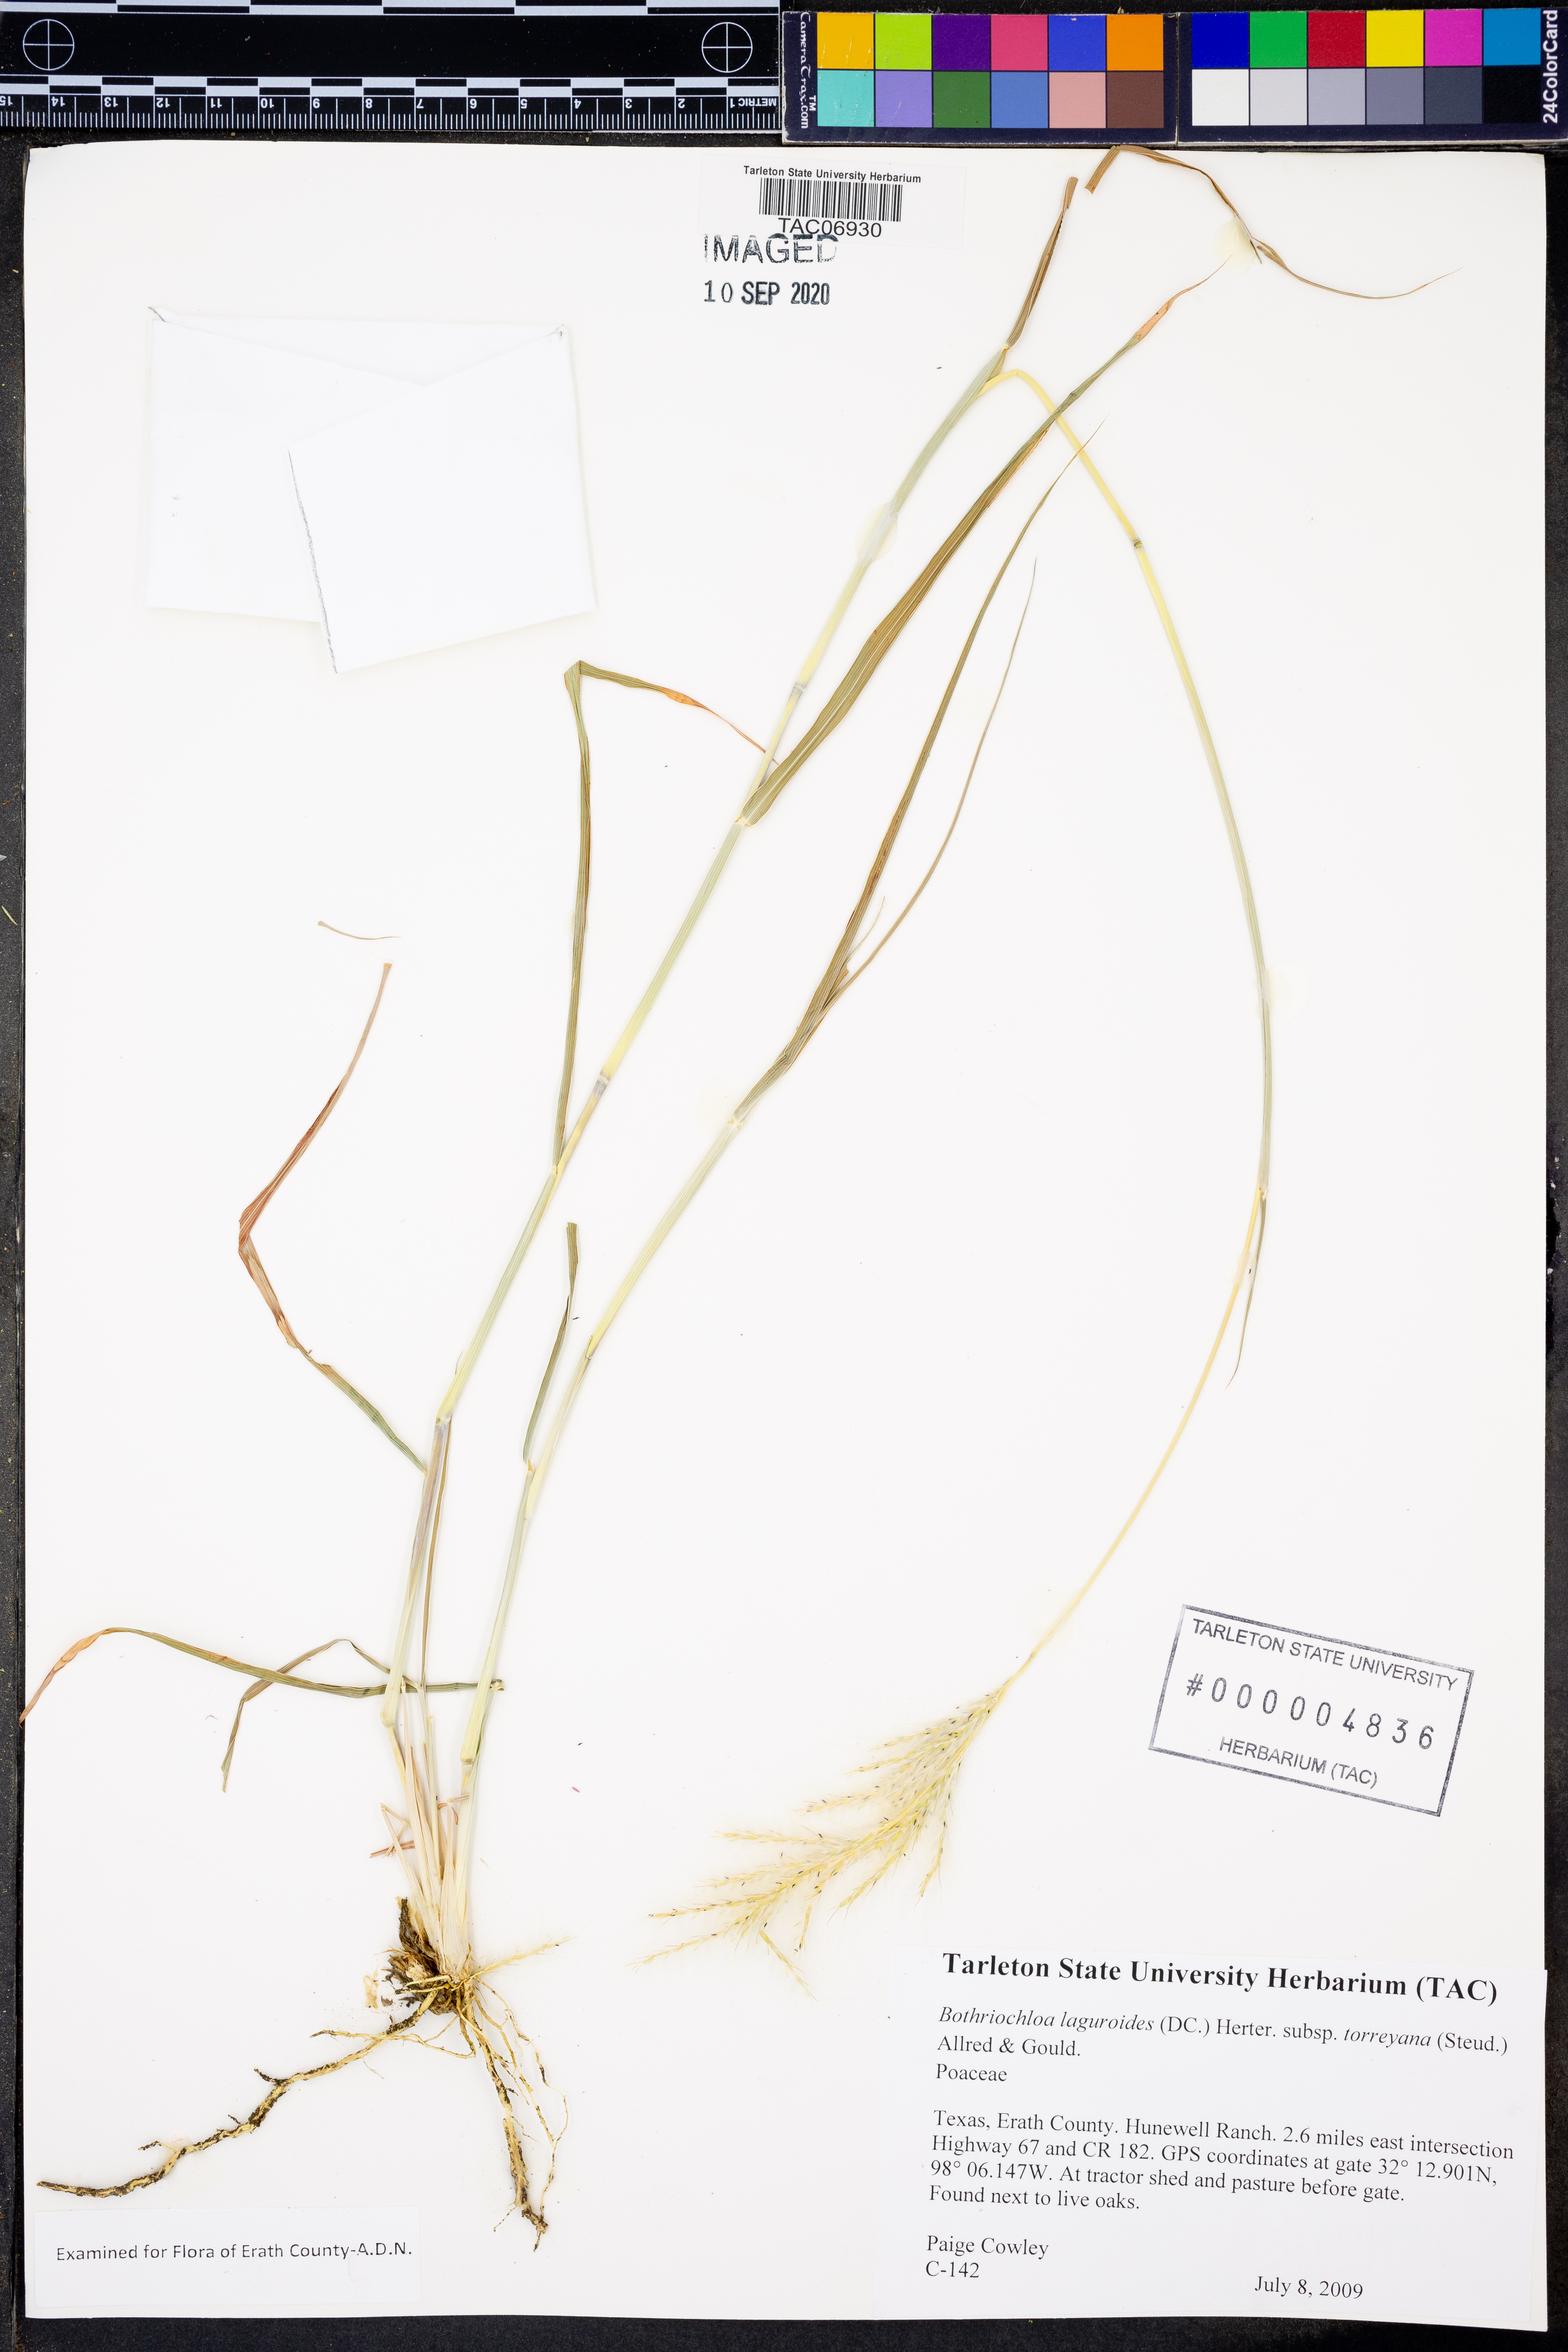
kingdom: Plantae
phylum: Tracheophyta
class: Liliopsida
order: Poales
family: Poaceae
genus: Bothriochloa
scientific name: Bothriochloa torreyana
